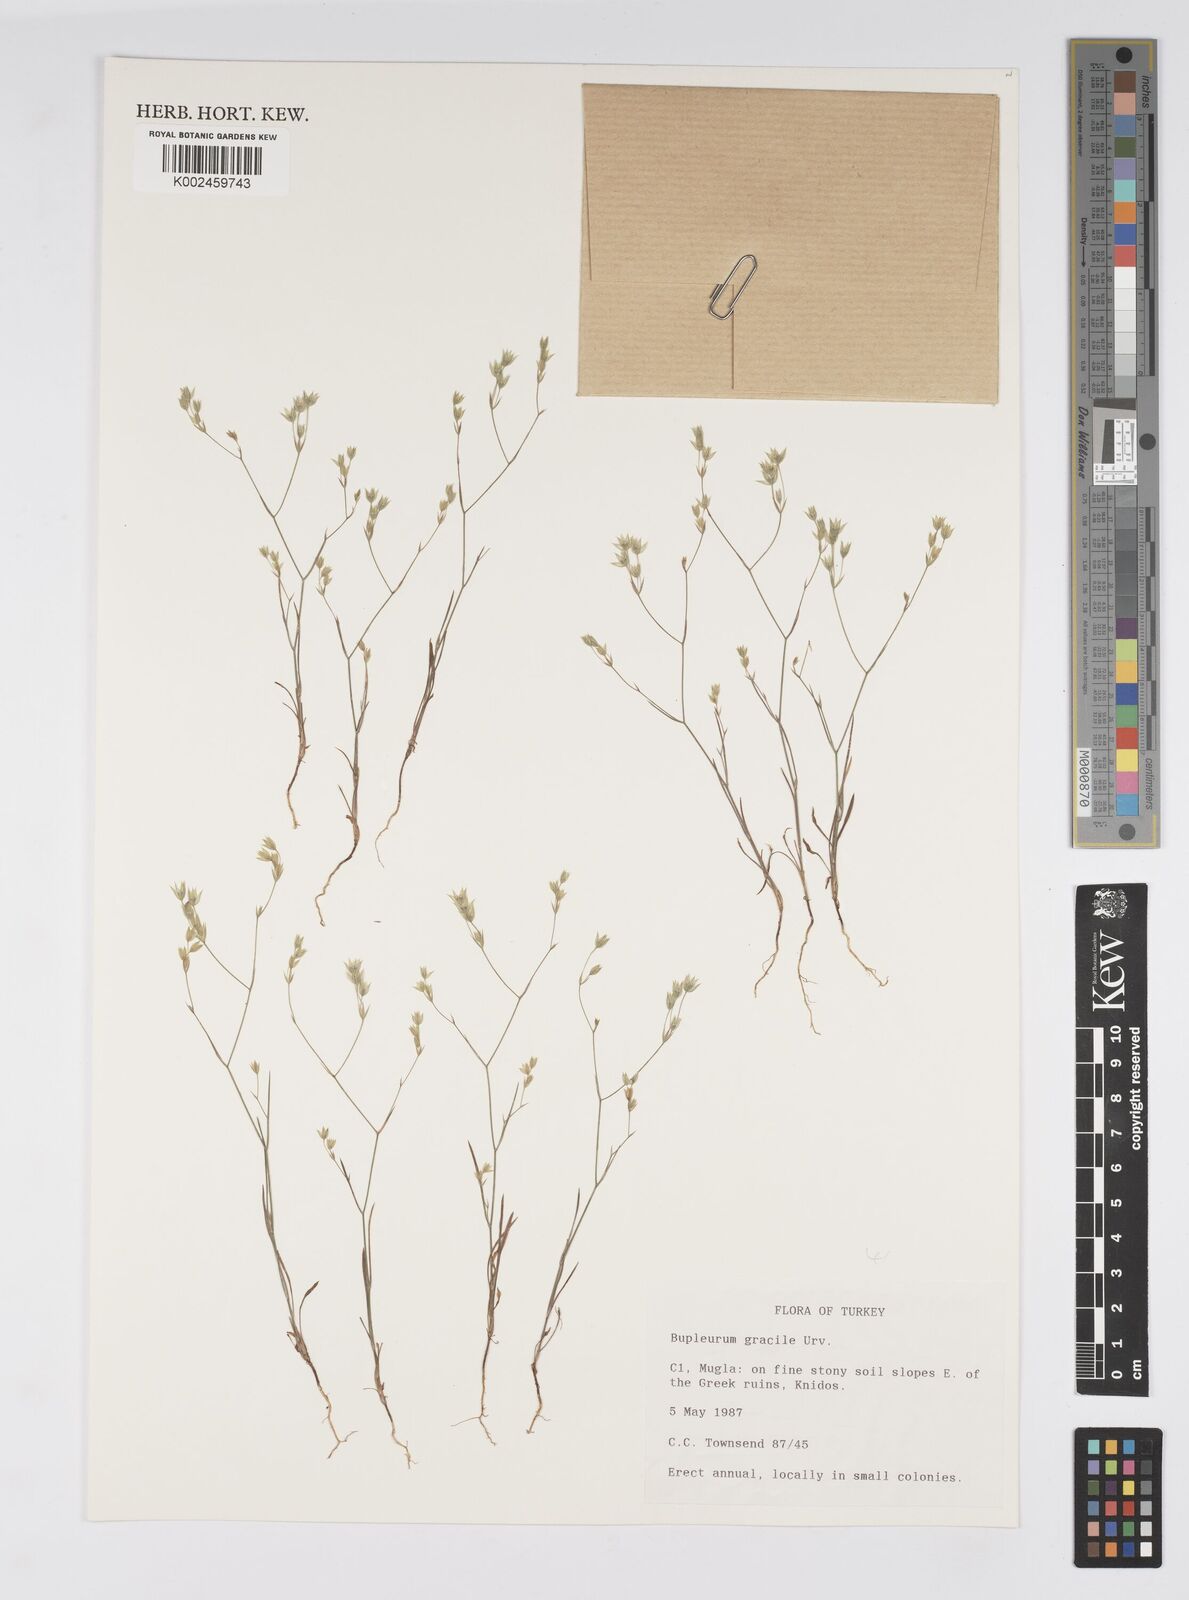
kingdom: Plantae
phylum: Tracheophyta
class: Magnoliopsida
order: Apiales
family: Apiaceae
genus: Bupleurum
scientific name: Bupleurum gracile
